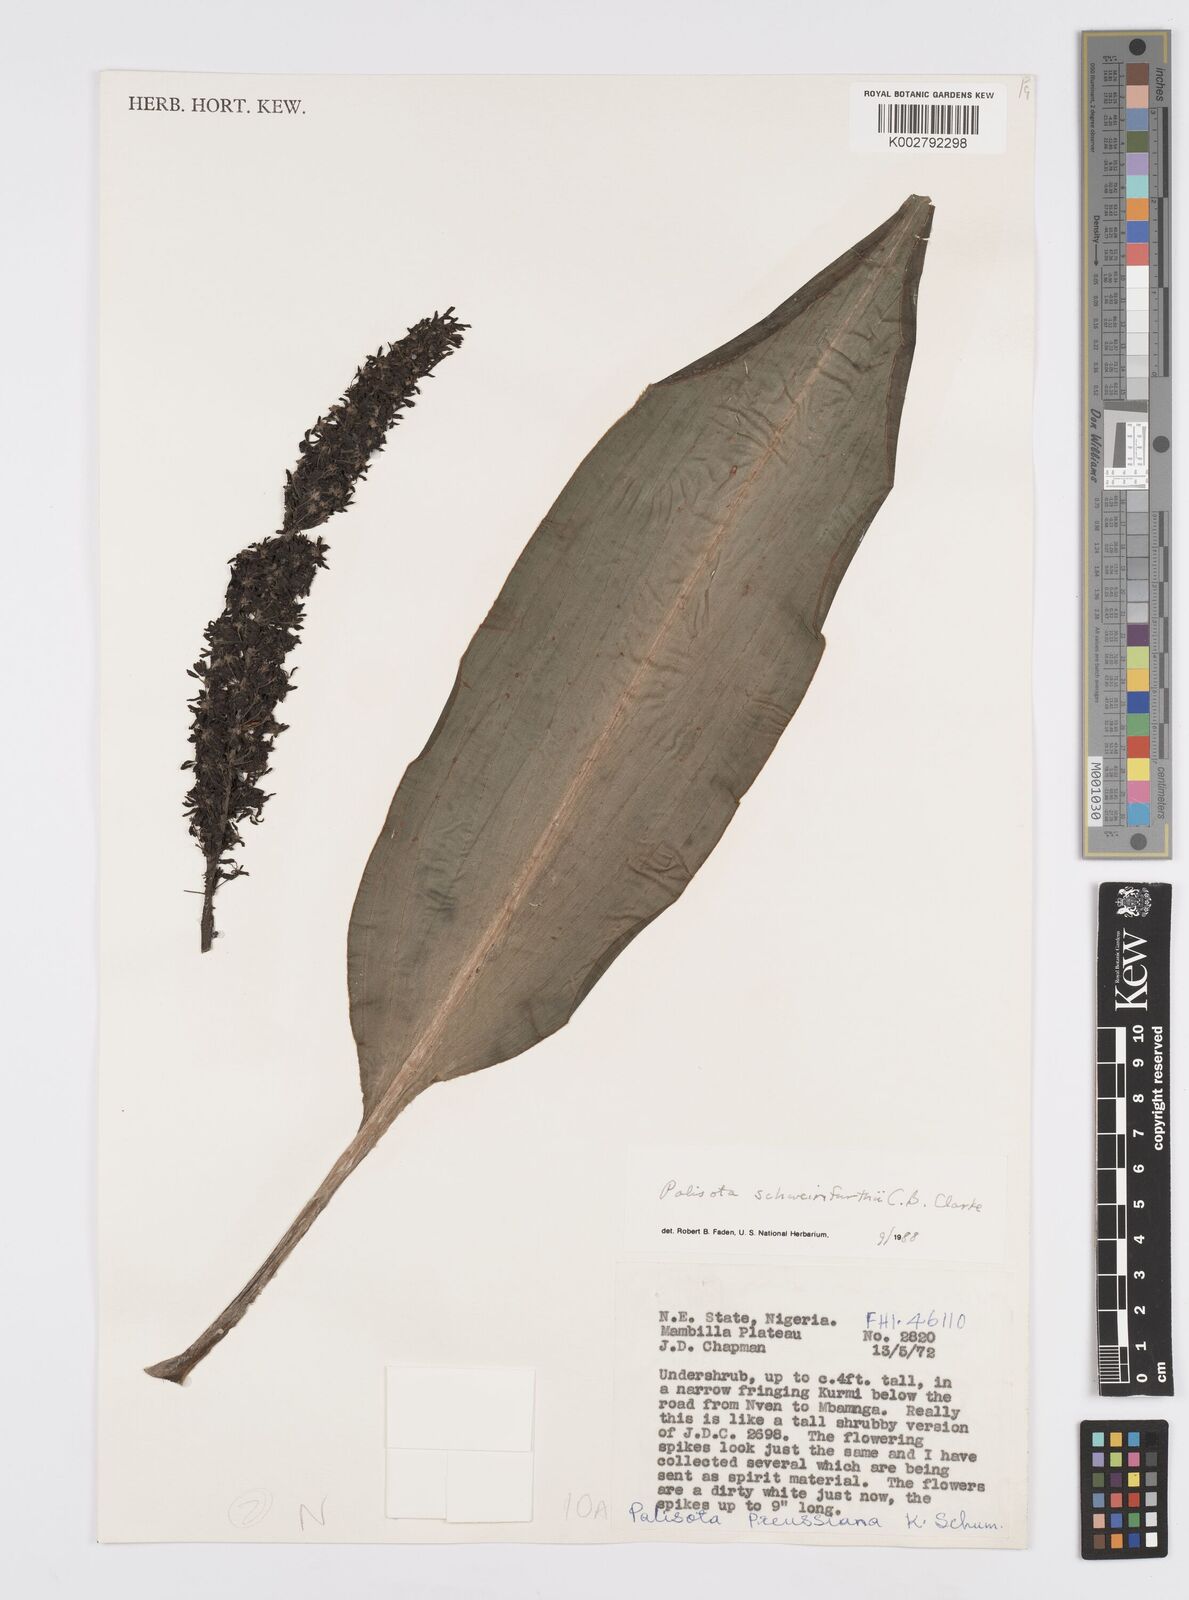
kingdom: Plantae
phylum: Tracheophyta
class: Liliopsida
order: Commelinales
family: Commelinaceae
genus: Palisota
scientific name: Palisota schweinfurthii
